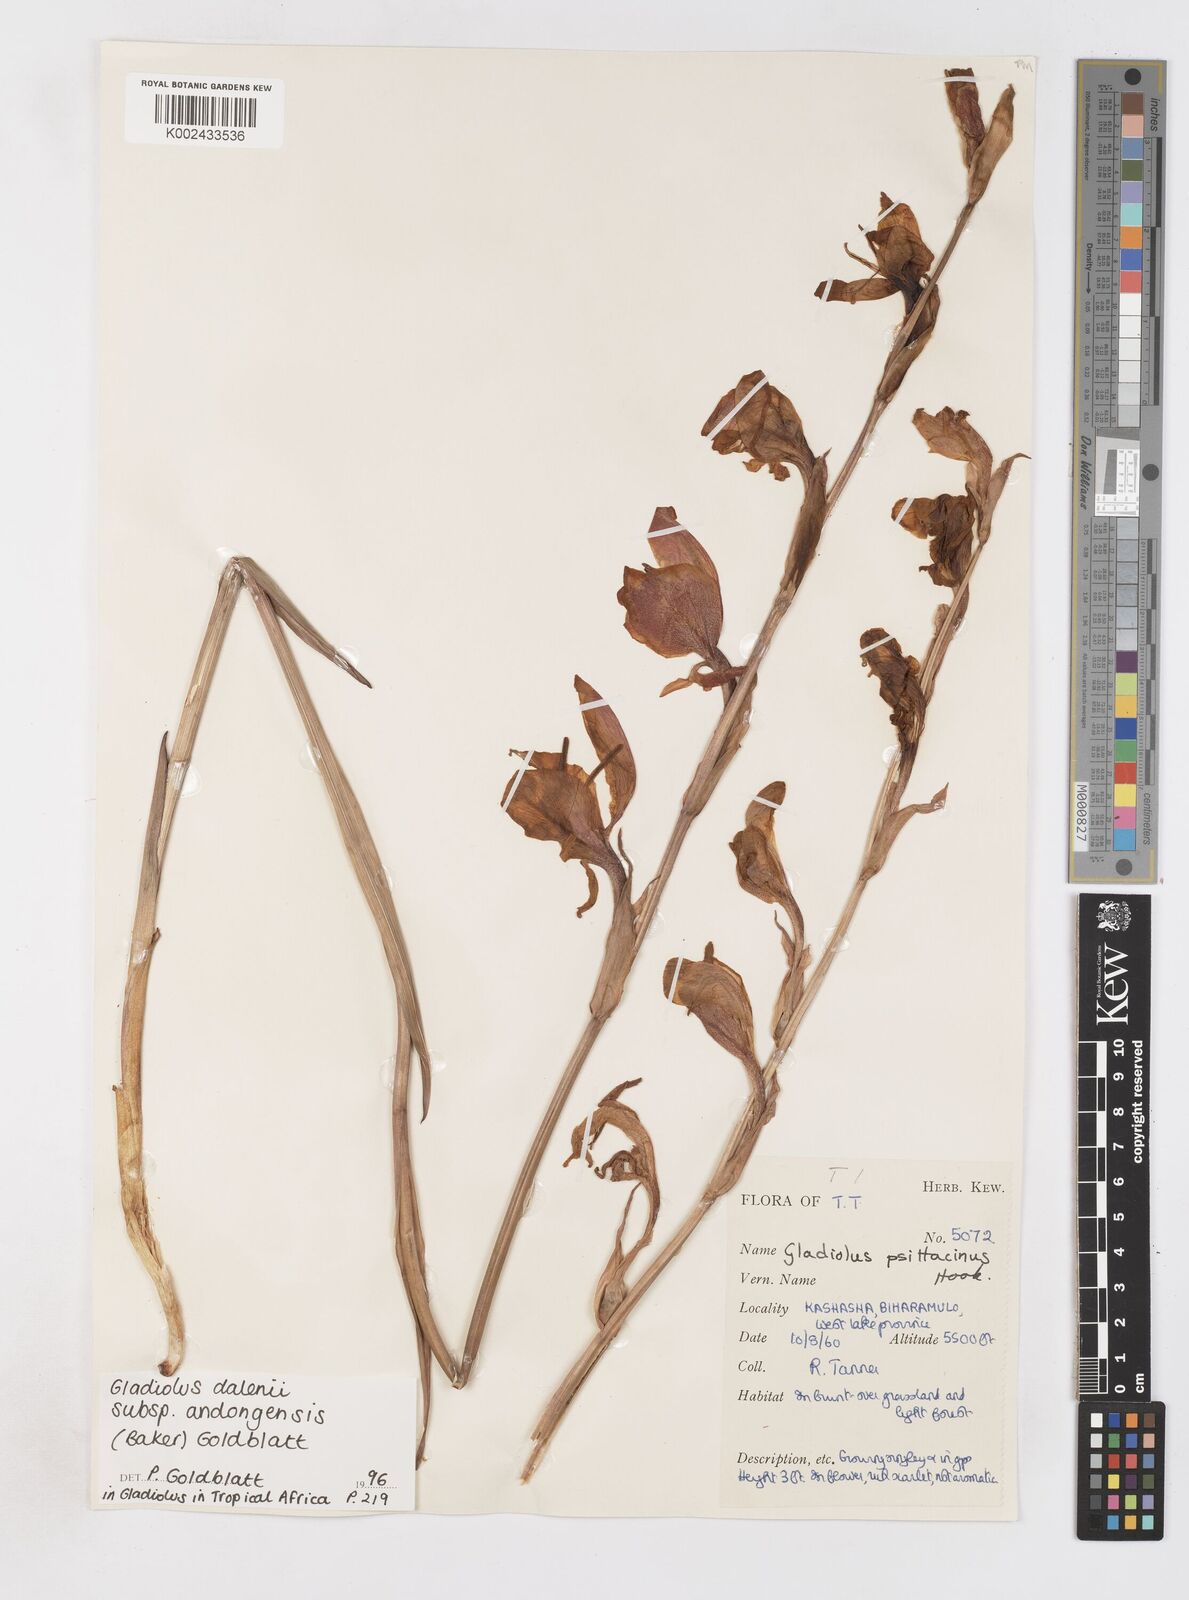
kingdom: Plantae
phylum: Tracheophyta
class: Liliopsida
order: Asparagales
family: Iridaceae
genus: Gladiolus
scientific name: Gladiolus dalenii
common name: Cornflag
